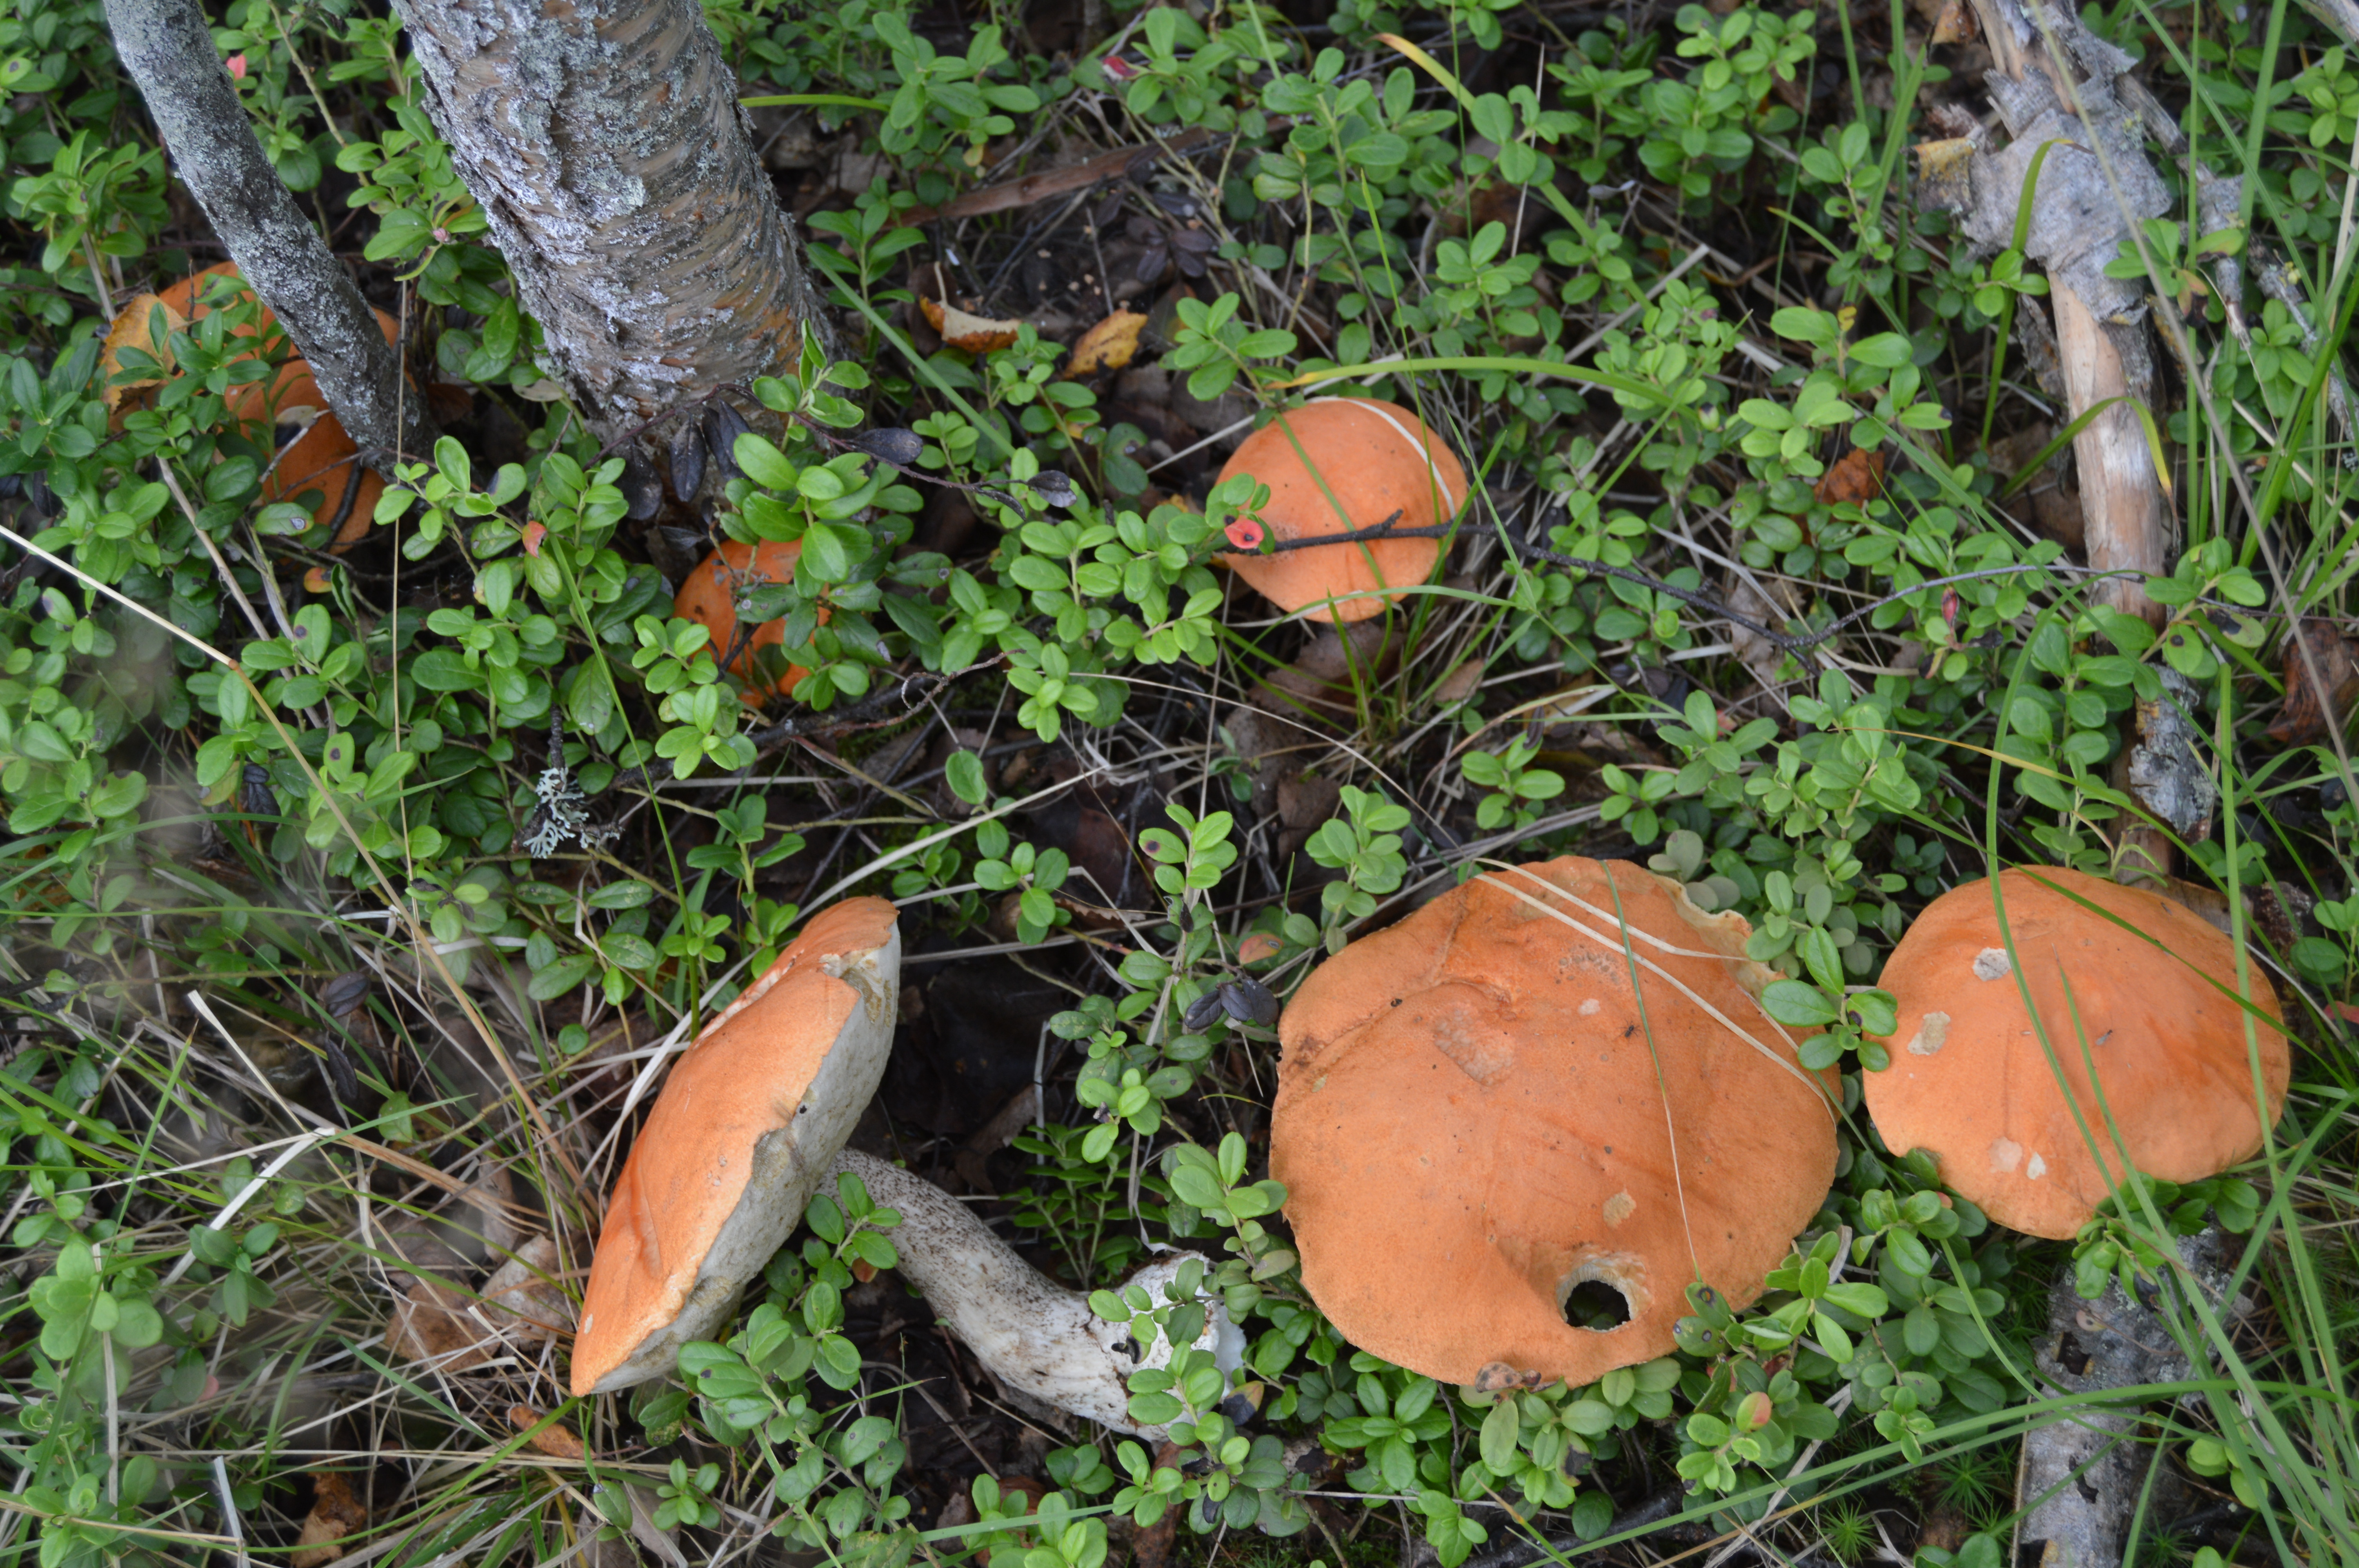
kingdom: Fungi
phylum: Basidiomycota
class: Agaricomycetes
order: Boletales
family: Boletaceae
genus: Leccinum
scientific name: Leccinum versipelle
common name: Orange birch bolete
